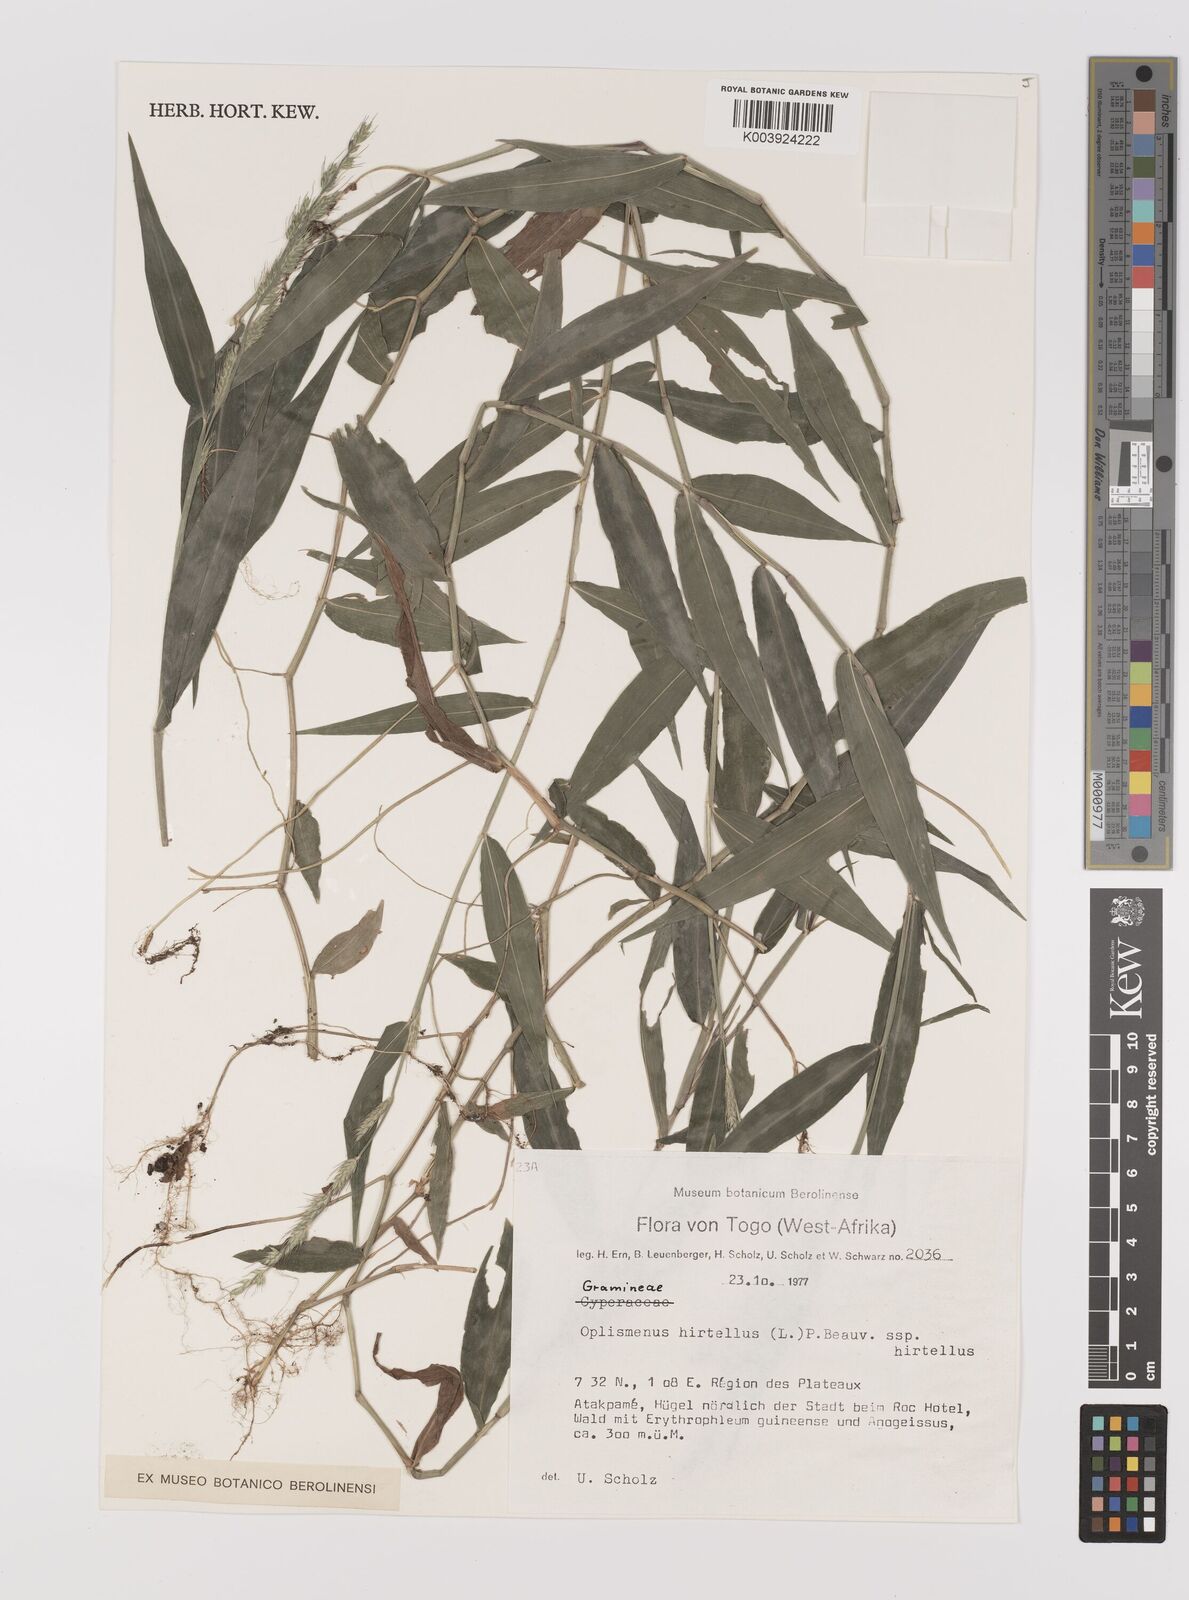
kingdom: Plantae
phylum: Tracheophyta
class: Liliopsida
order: Poales
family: Poaceae
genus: Oplismenus
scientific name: Oplismenus hirtellus
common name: Basketgrass
